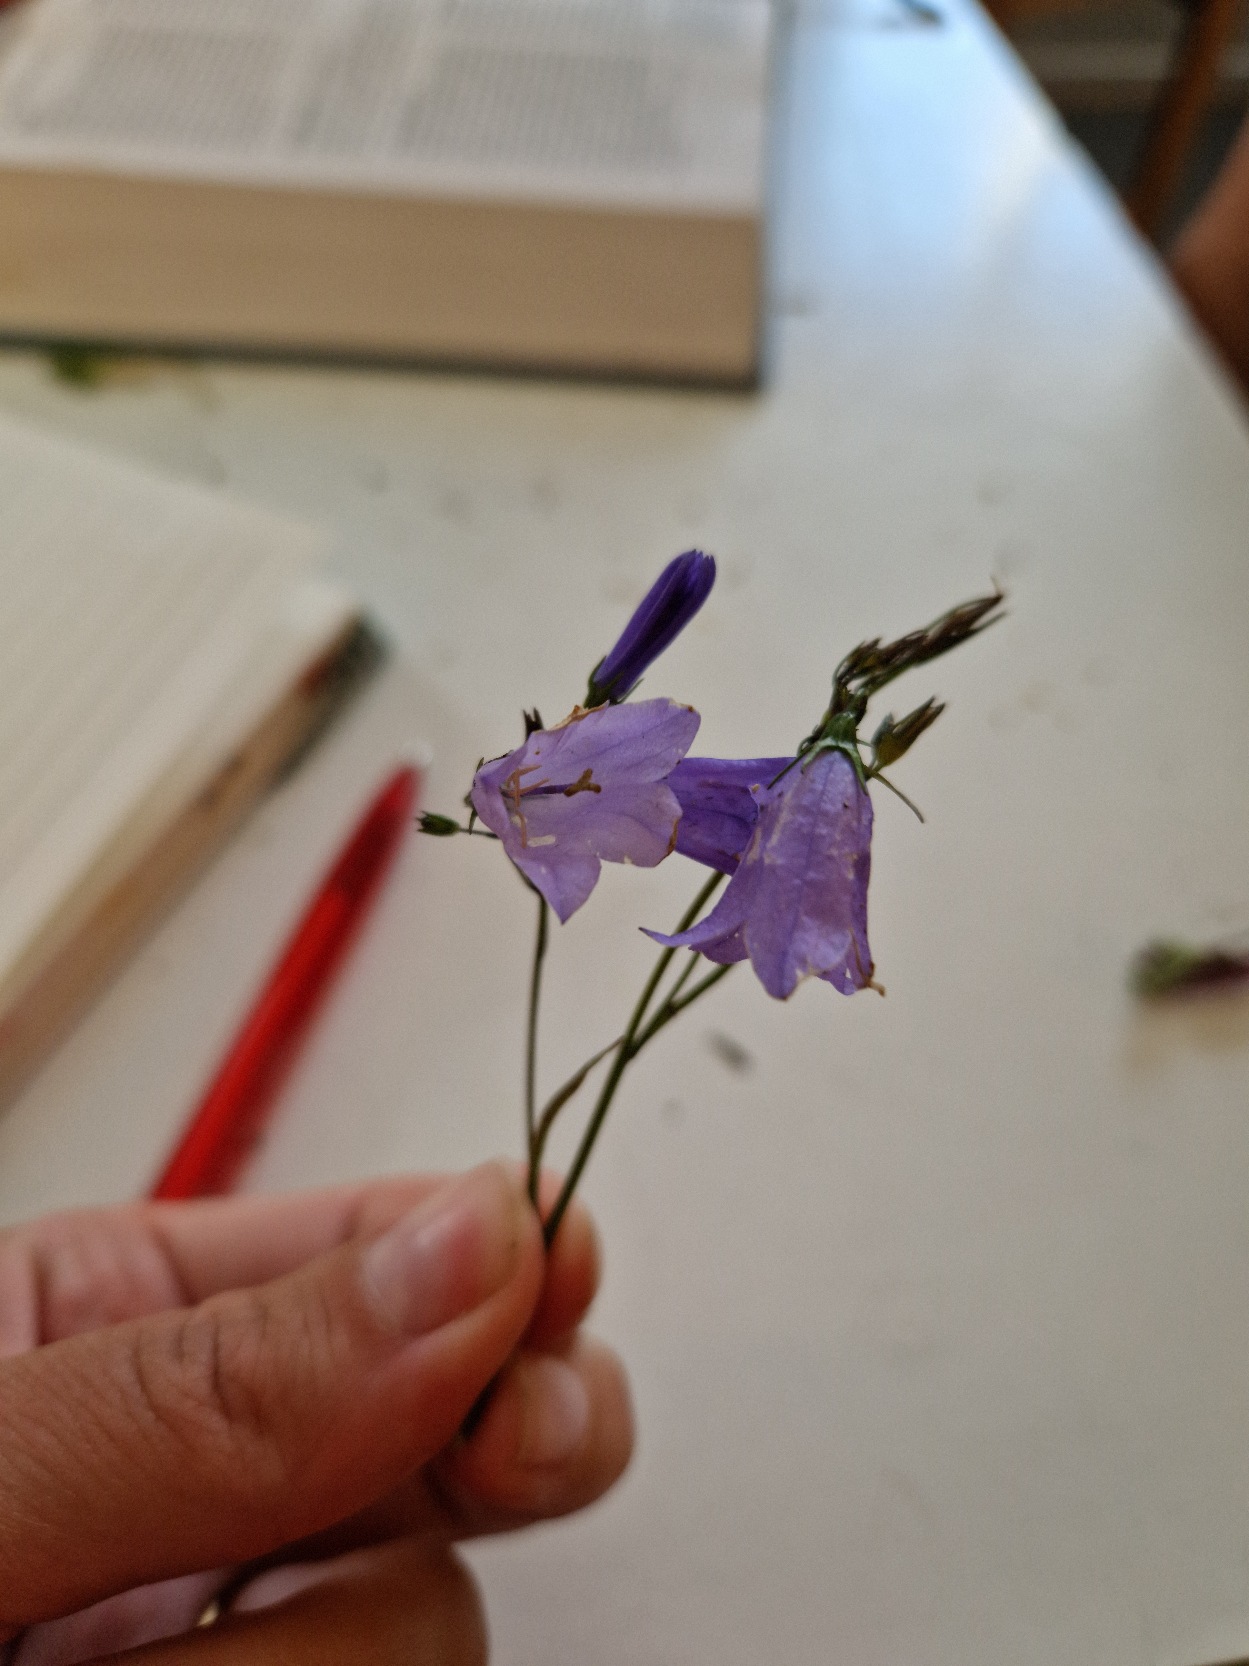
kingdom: Plantae
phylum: Tracheophyta
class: Magnoliopsida
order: Asterales
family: Campanulaceae
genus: Campanula
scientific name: Campanula rotundifolia
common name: Liden klokke
